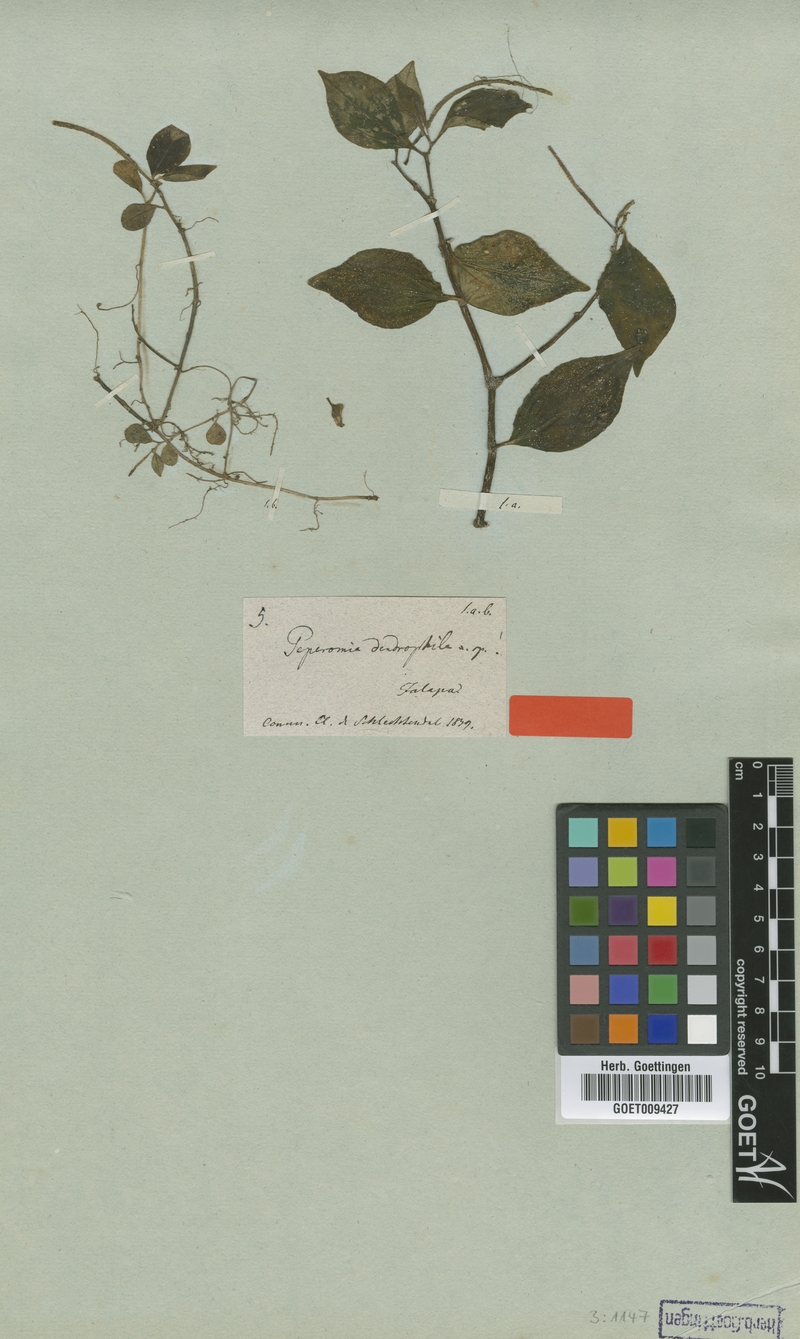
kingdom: Plantae
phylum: Tracheophyta
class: Magnoliopsida
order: Piperales
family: Piperaceae
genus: Peperomia
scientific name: Peperomia dendrophila
